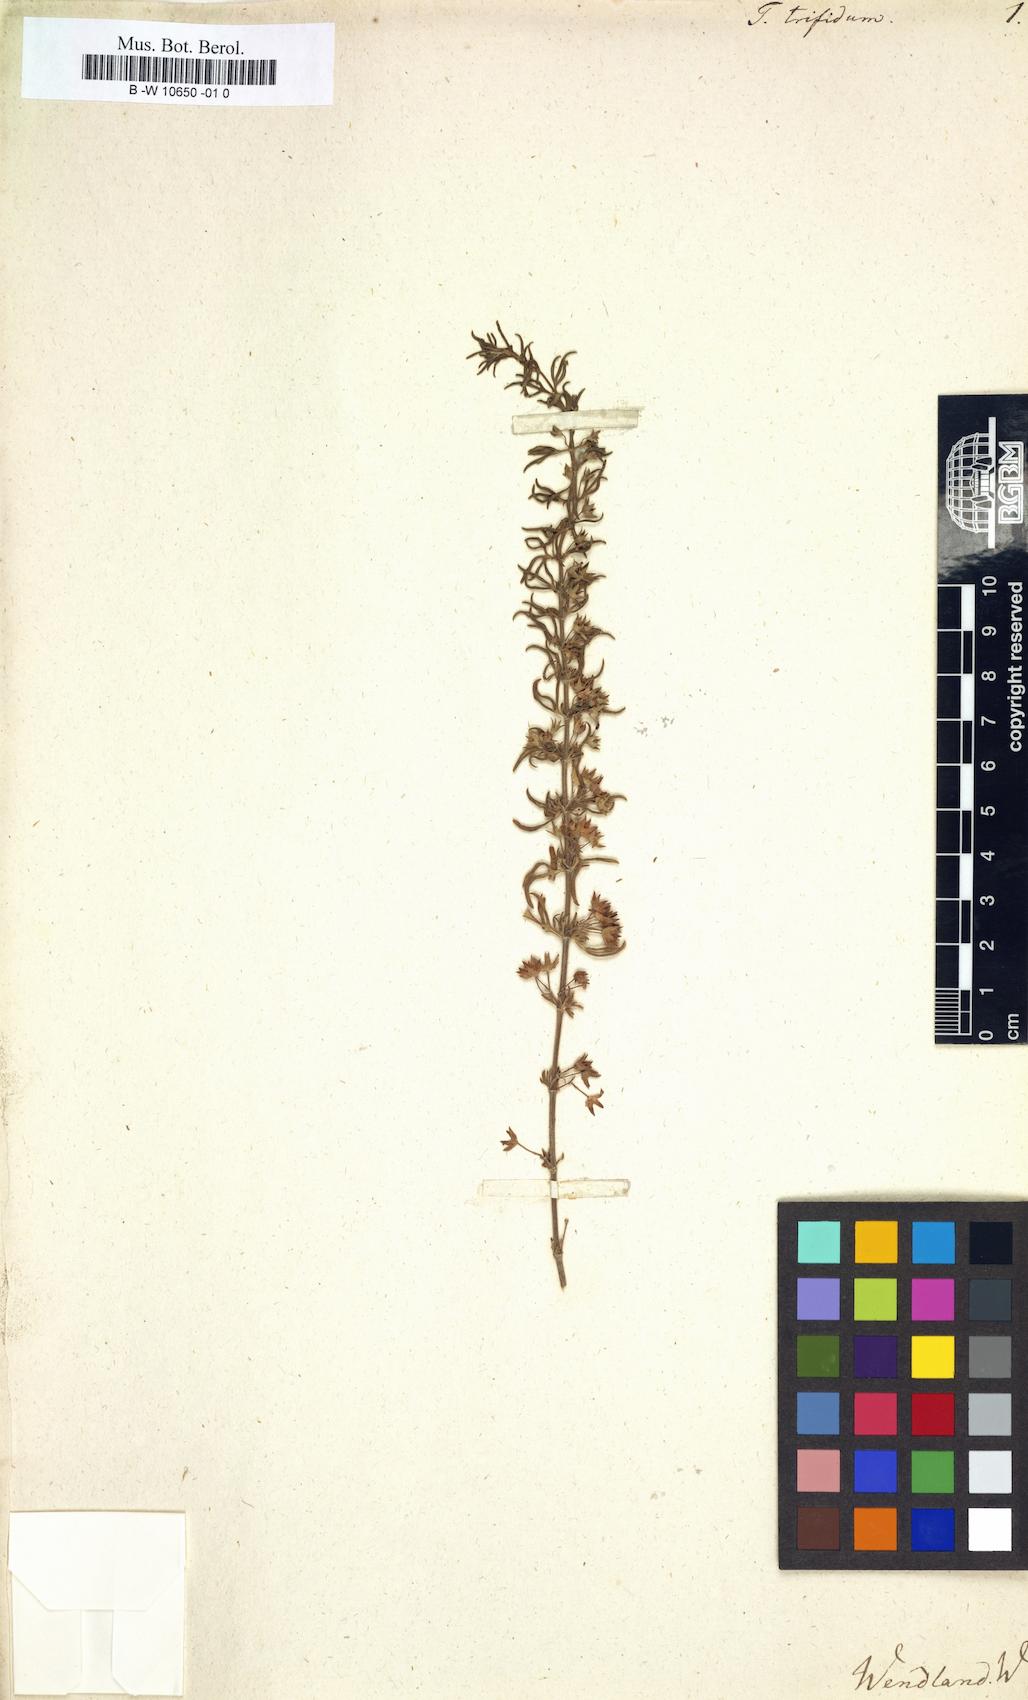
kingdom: Plantae
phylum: Tracheophyta
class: Magnoliopsida
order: Lamiales
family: Lamiaceae
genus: Teucrium
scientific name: Teucrium trifidum
